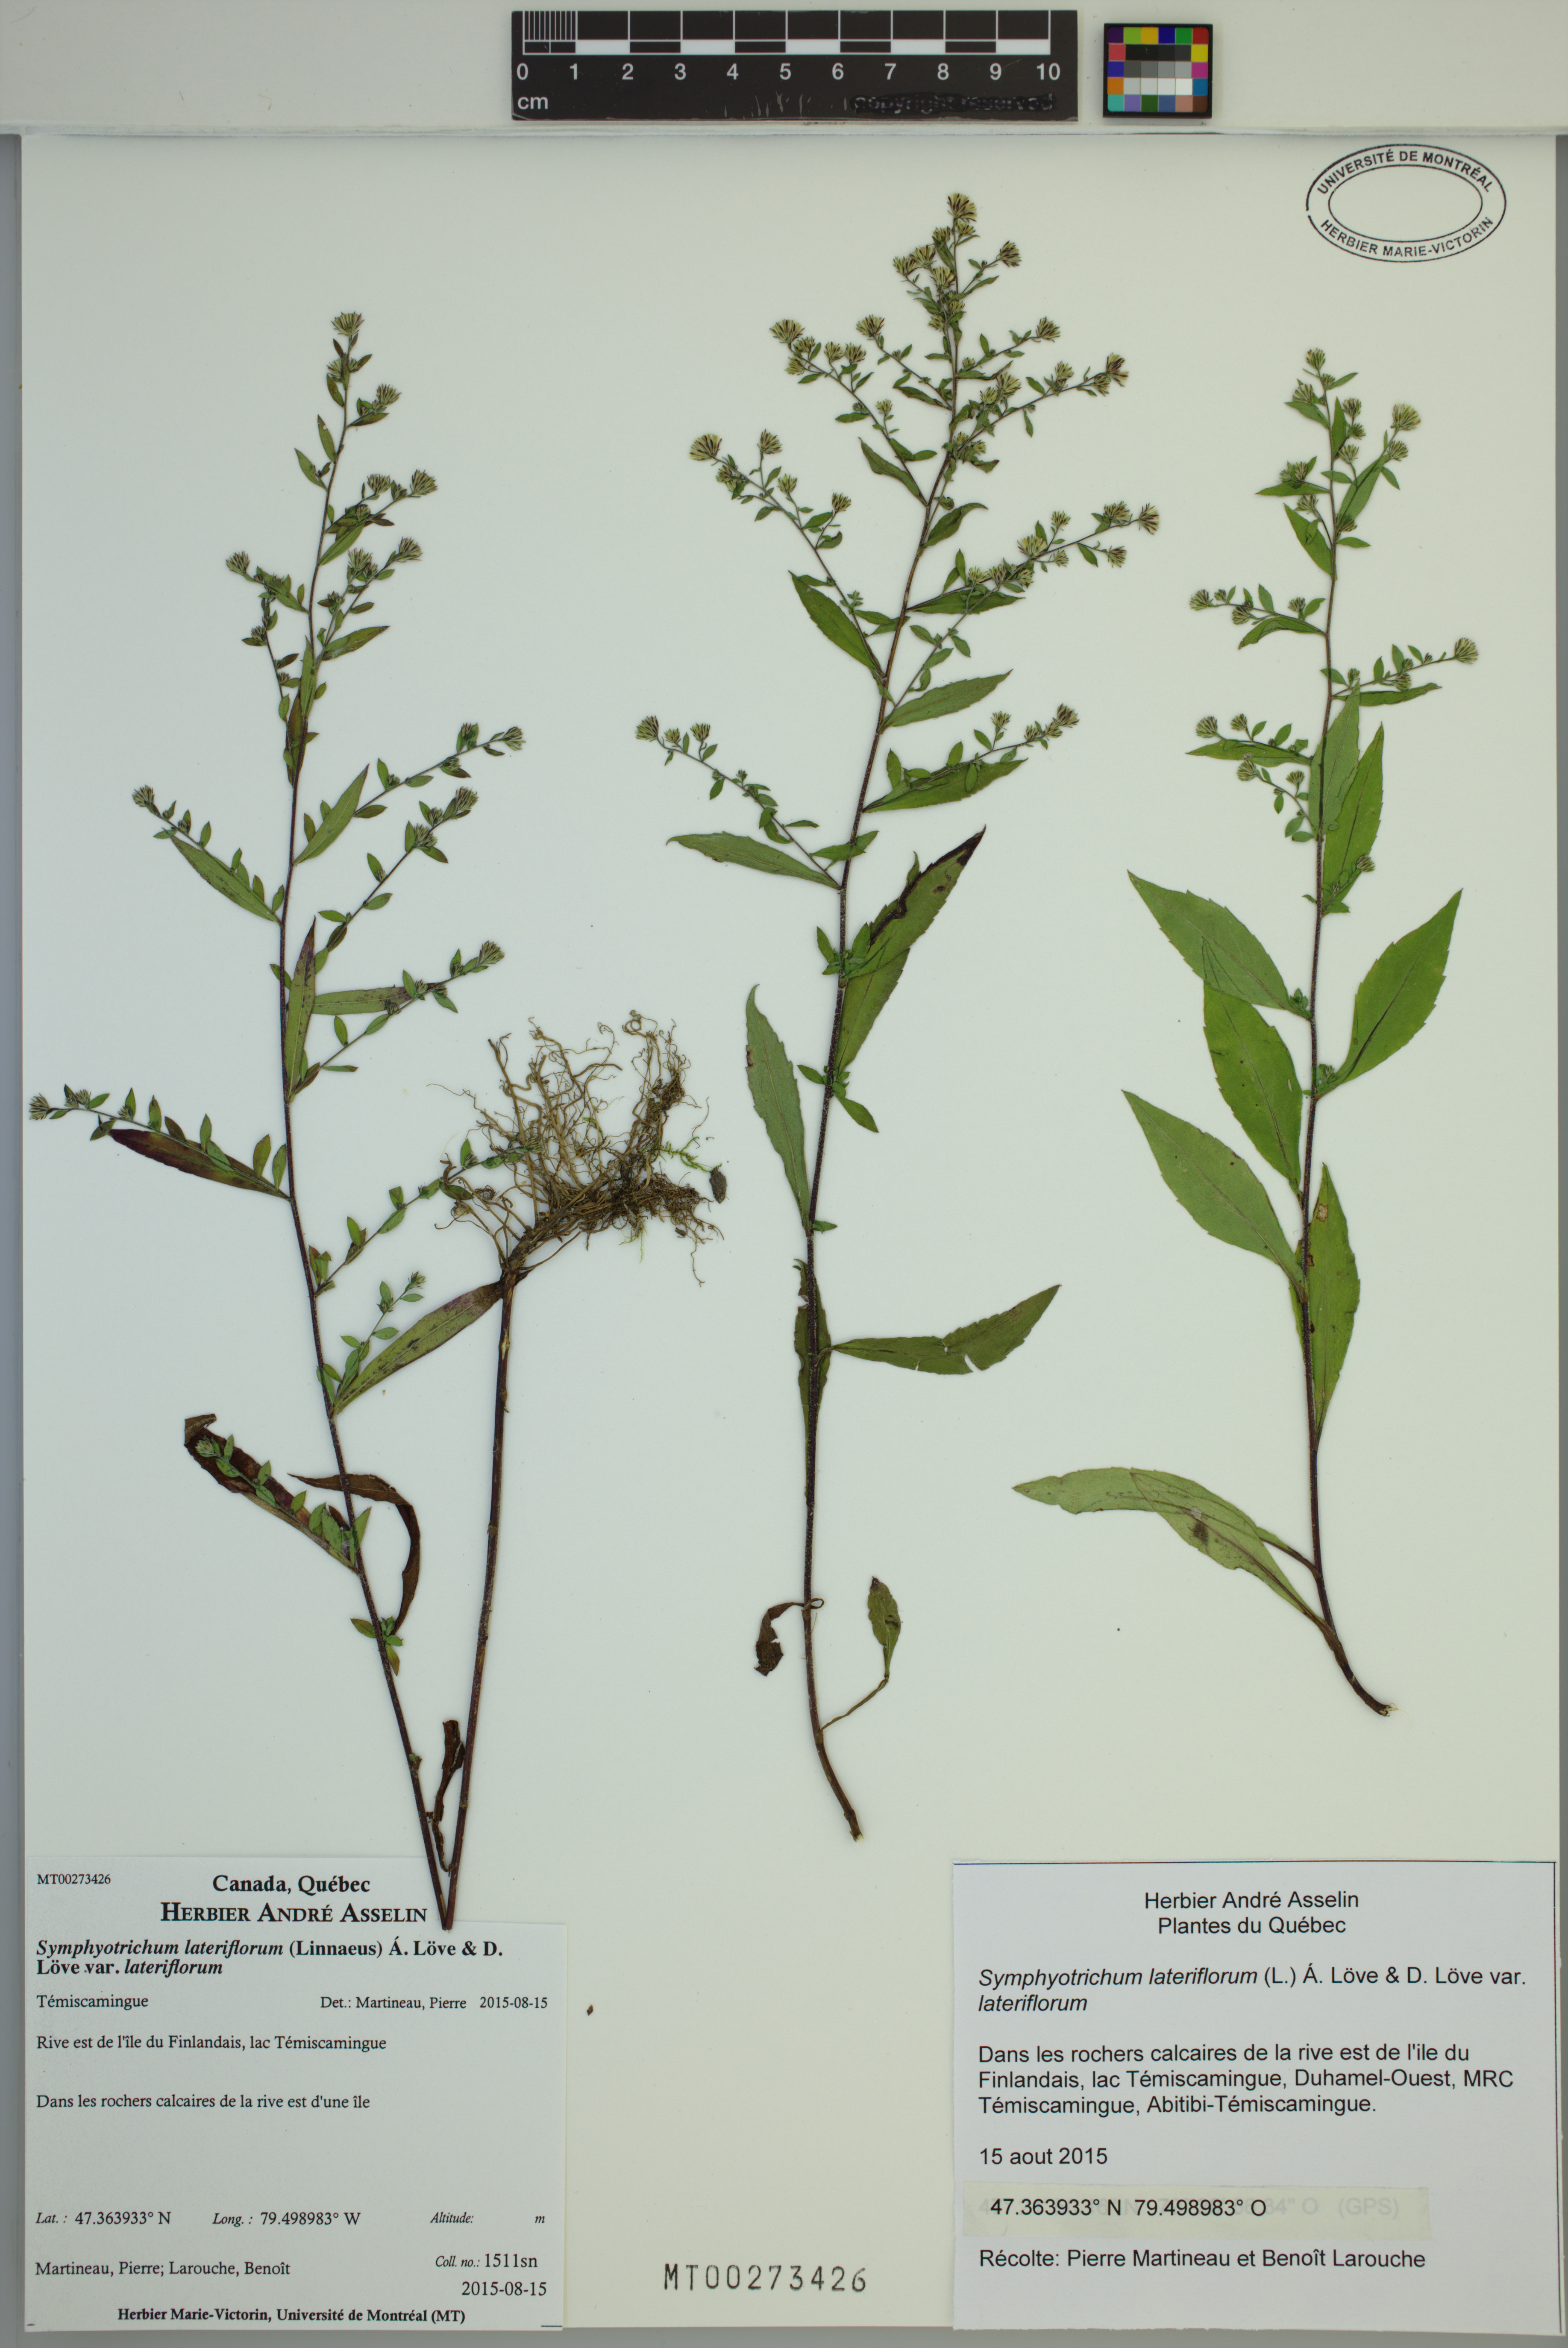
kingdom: Plantae
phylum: Tracheophyta
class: Magnoliopsida
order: Asterales
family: Asteraceae
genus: Symphyotrichum
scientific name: Symphyotrichum lateriflorum
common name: Calico aster
